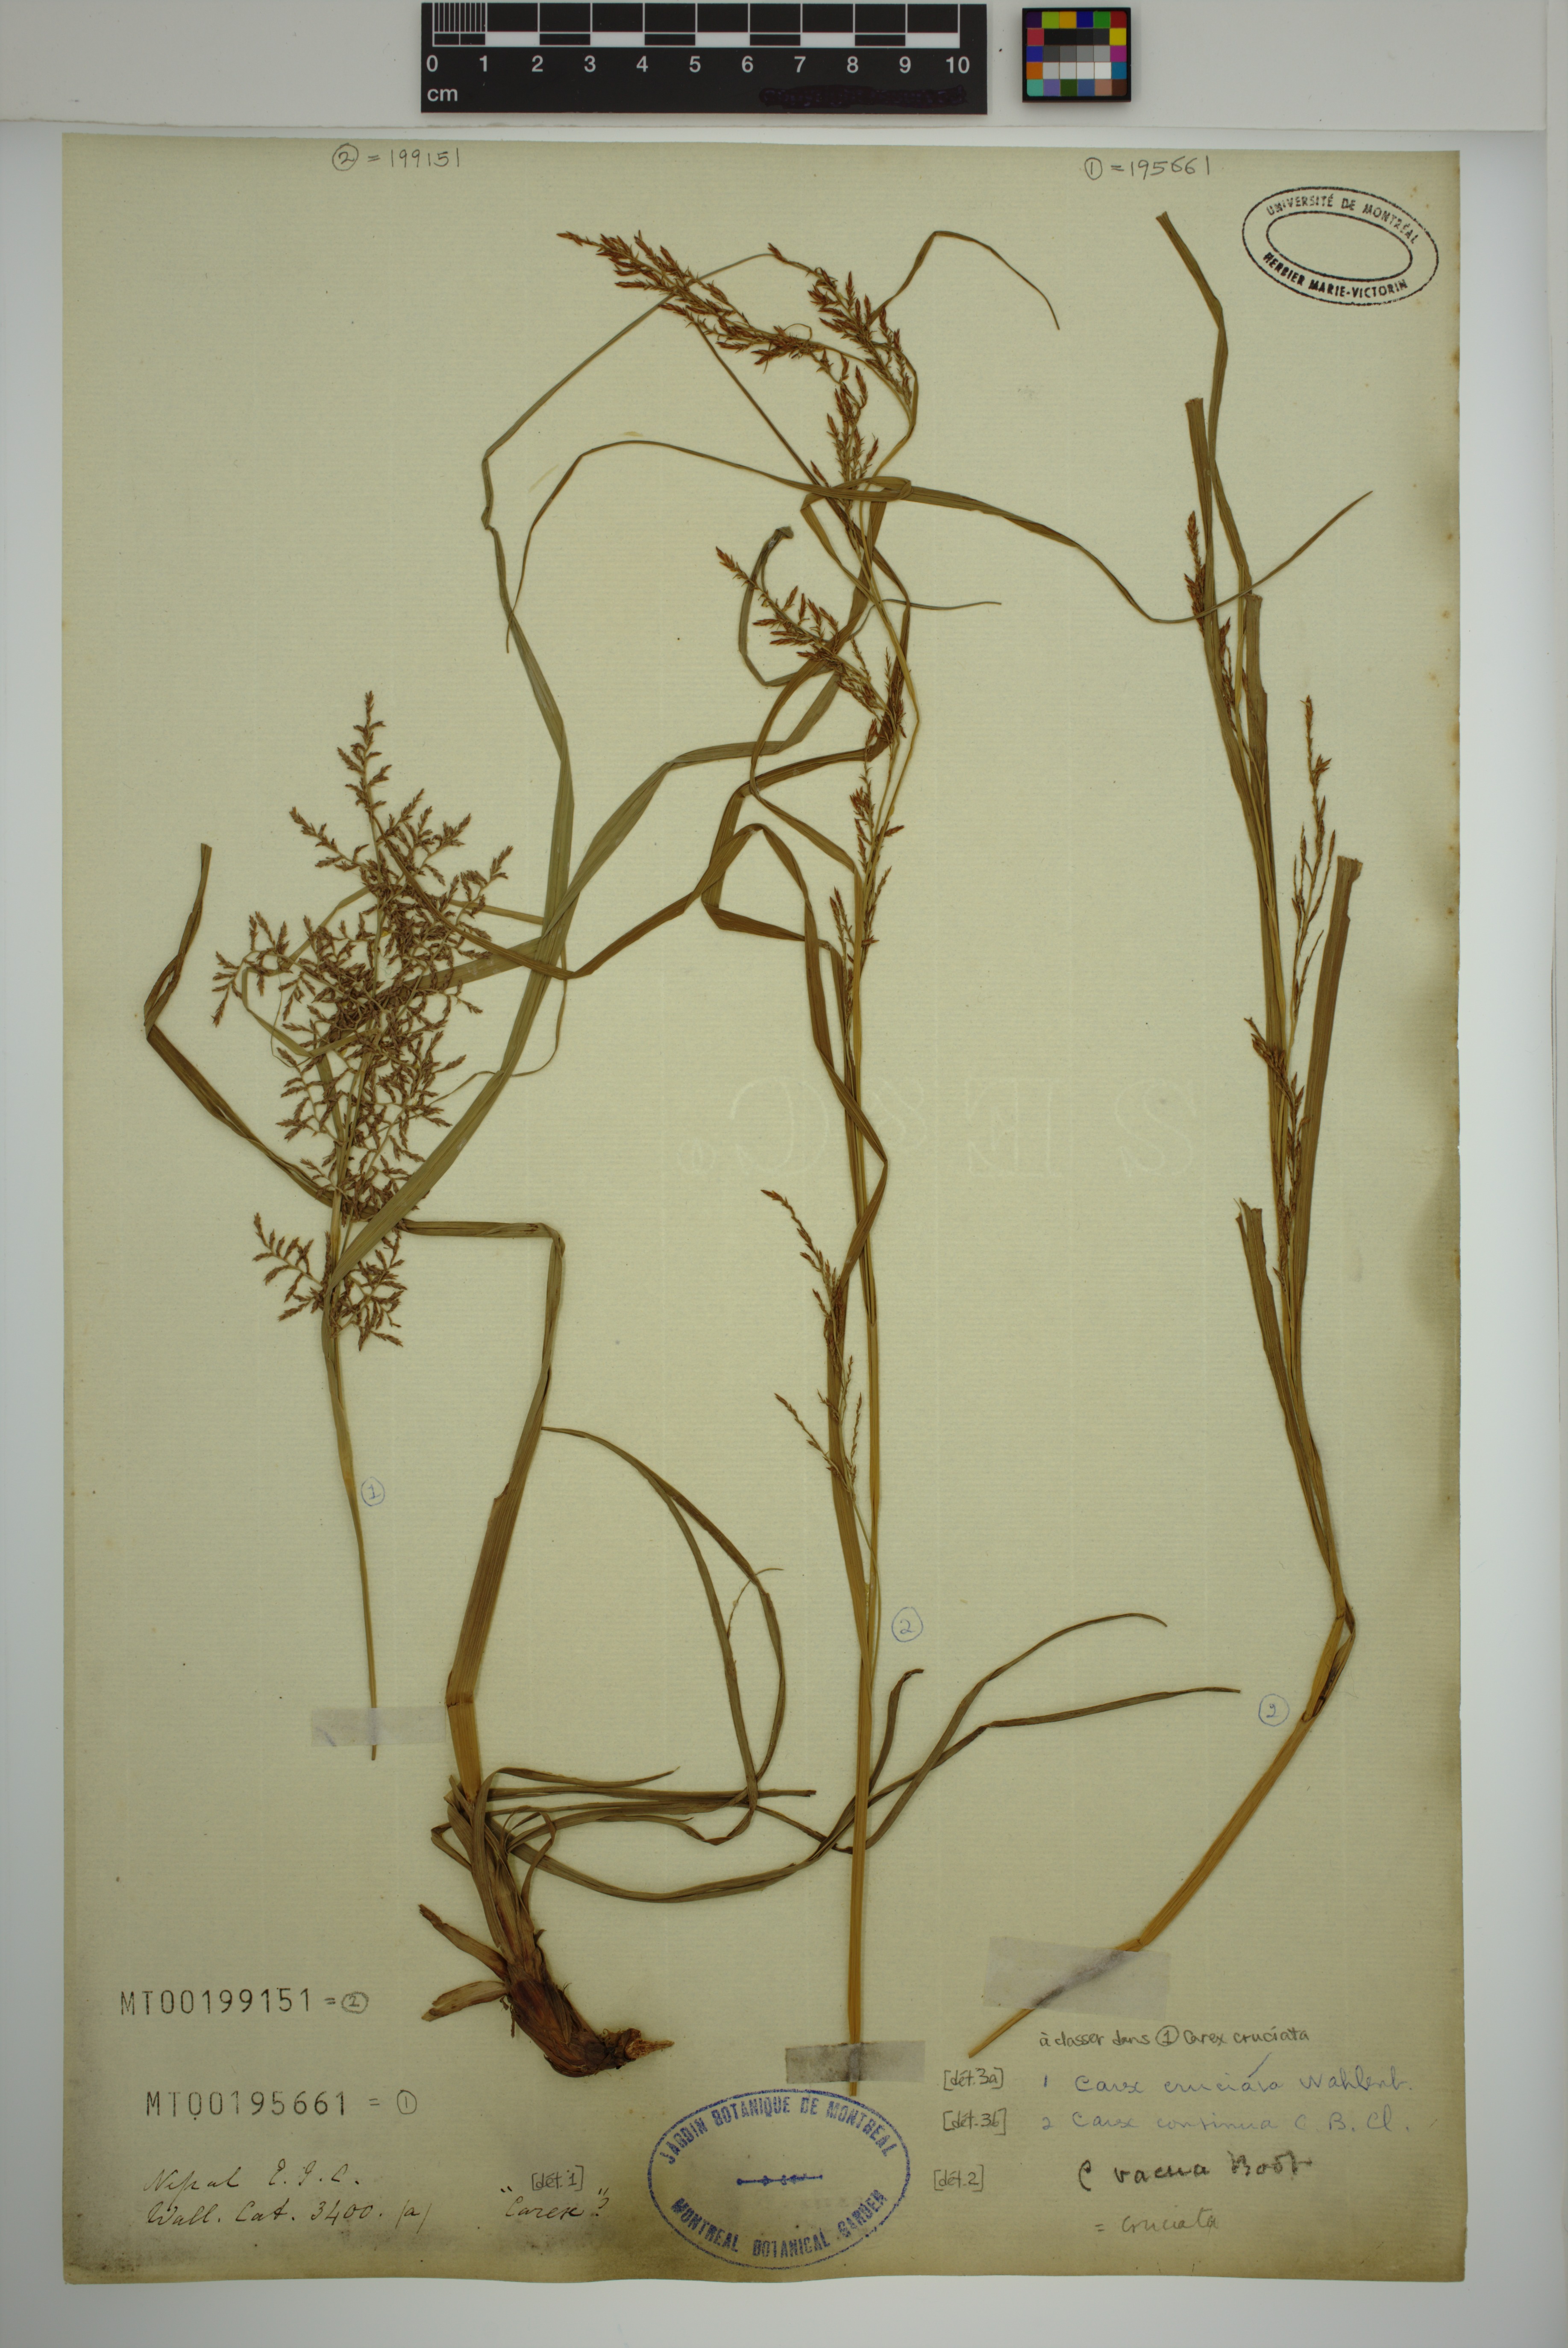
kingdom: Plantae
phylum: Tracheophyta
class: Liliopsida
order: Poales
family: Cyperaceae
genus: Carex
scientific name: Carex continua
